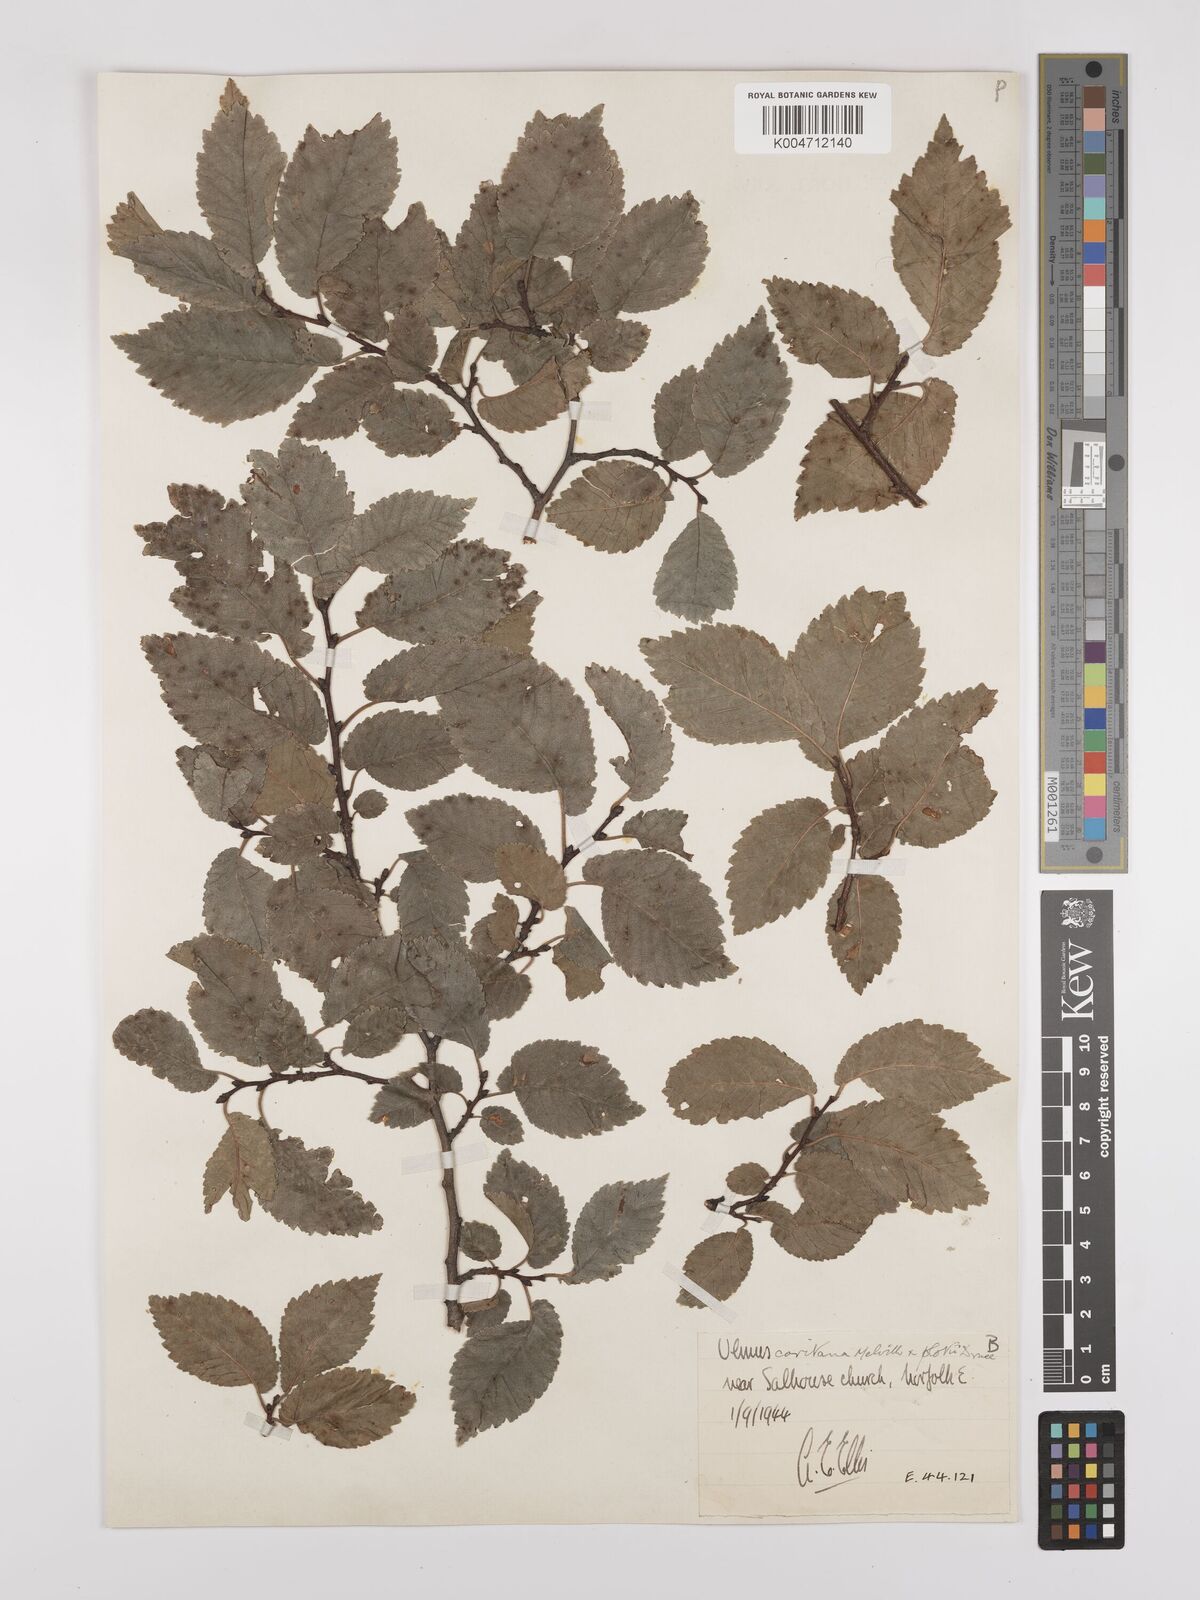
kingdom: Plantae
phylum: Tracheophyta
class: Magnoliopsida
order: Rosales
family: Ulmaceae
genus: Ulmus
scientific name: Ulmus minor
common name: Small-leaved elm
